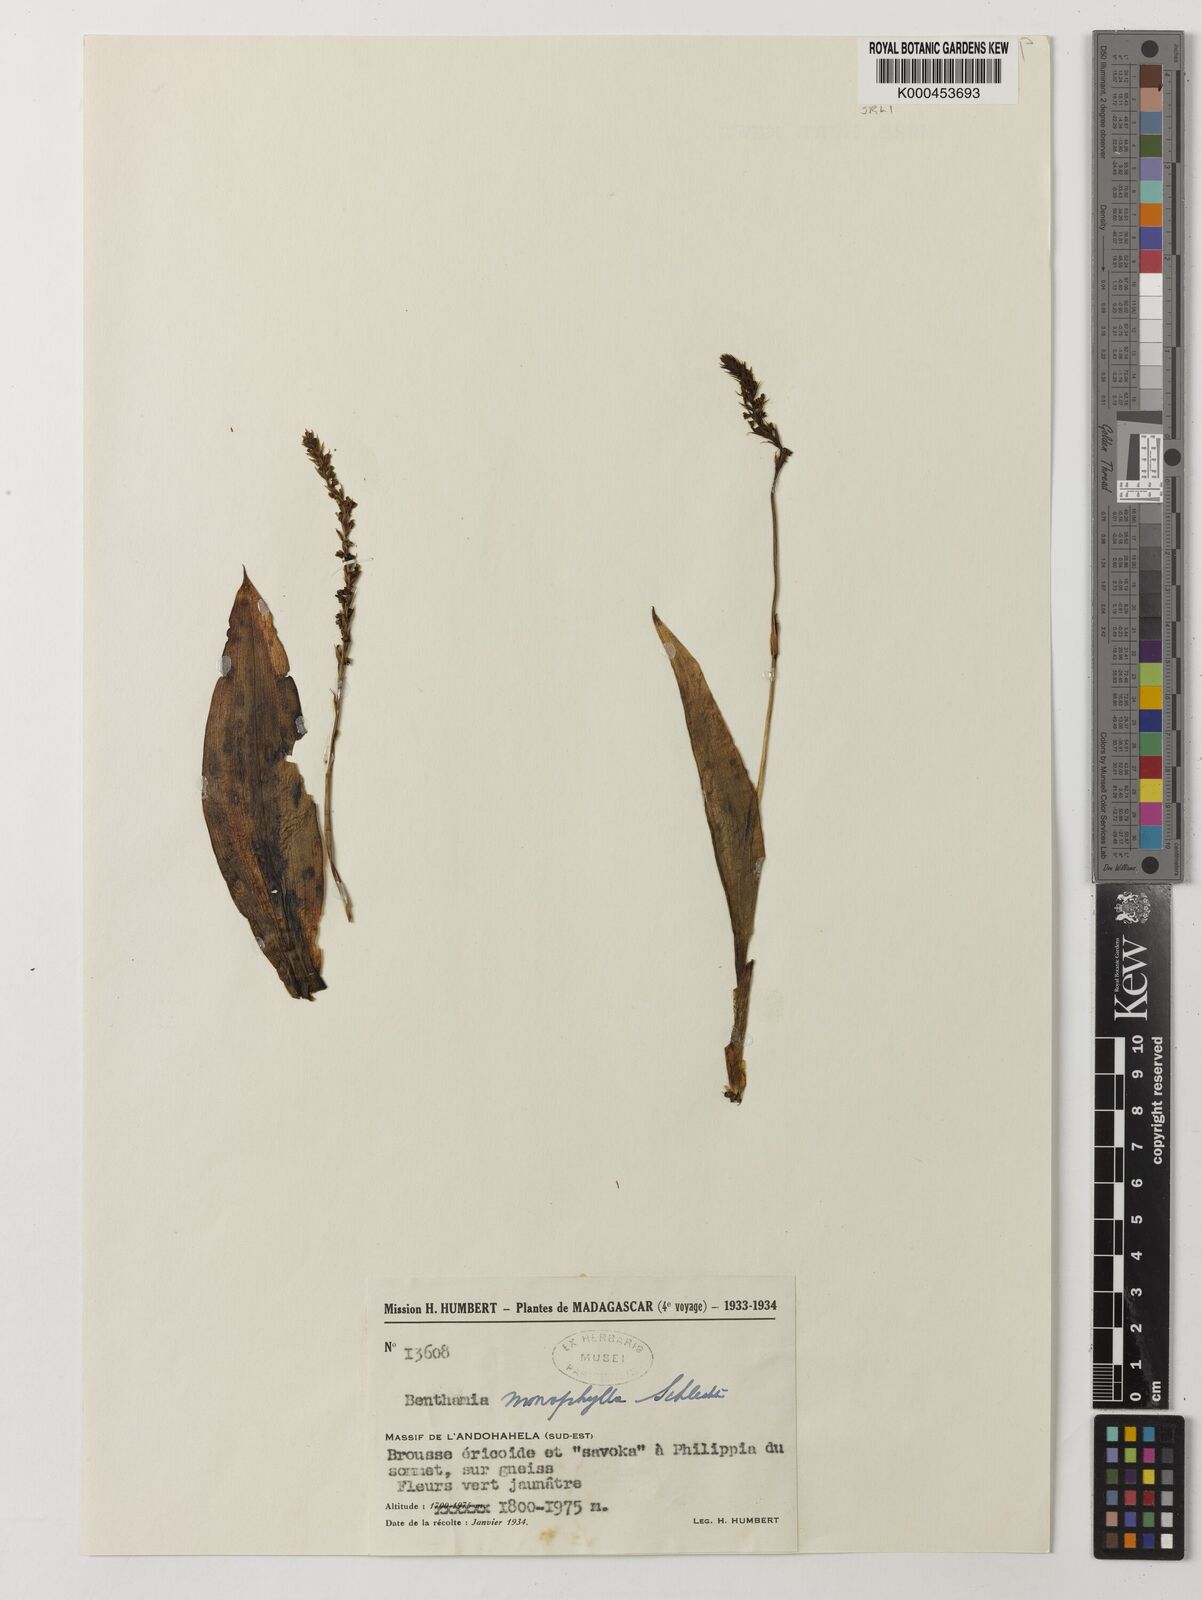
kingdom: Plantae
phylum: Tracheophyta
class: Liliopsida
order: Asparagales
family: Orchidaceae
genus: Benthamia
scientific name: Benthamia monophylla
